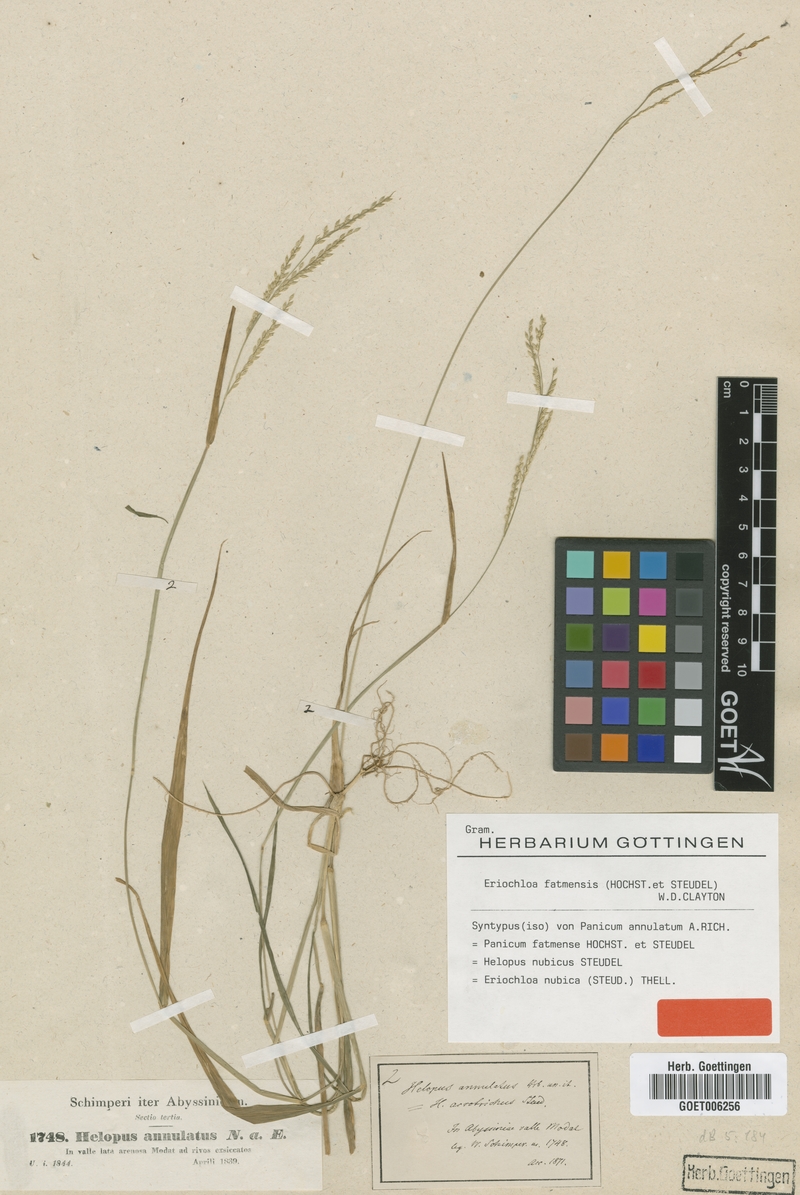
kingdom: Plantae
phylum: Tracheophyta
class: Liliopsida
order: Poales
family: Poaceae
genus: Eriochloa
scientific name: Eriochloa barbatus
